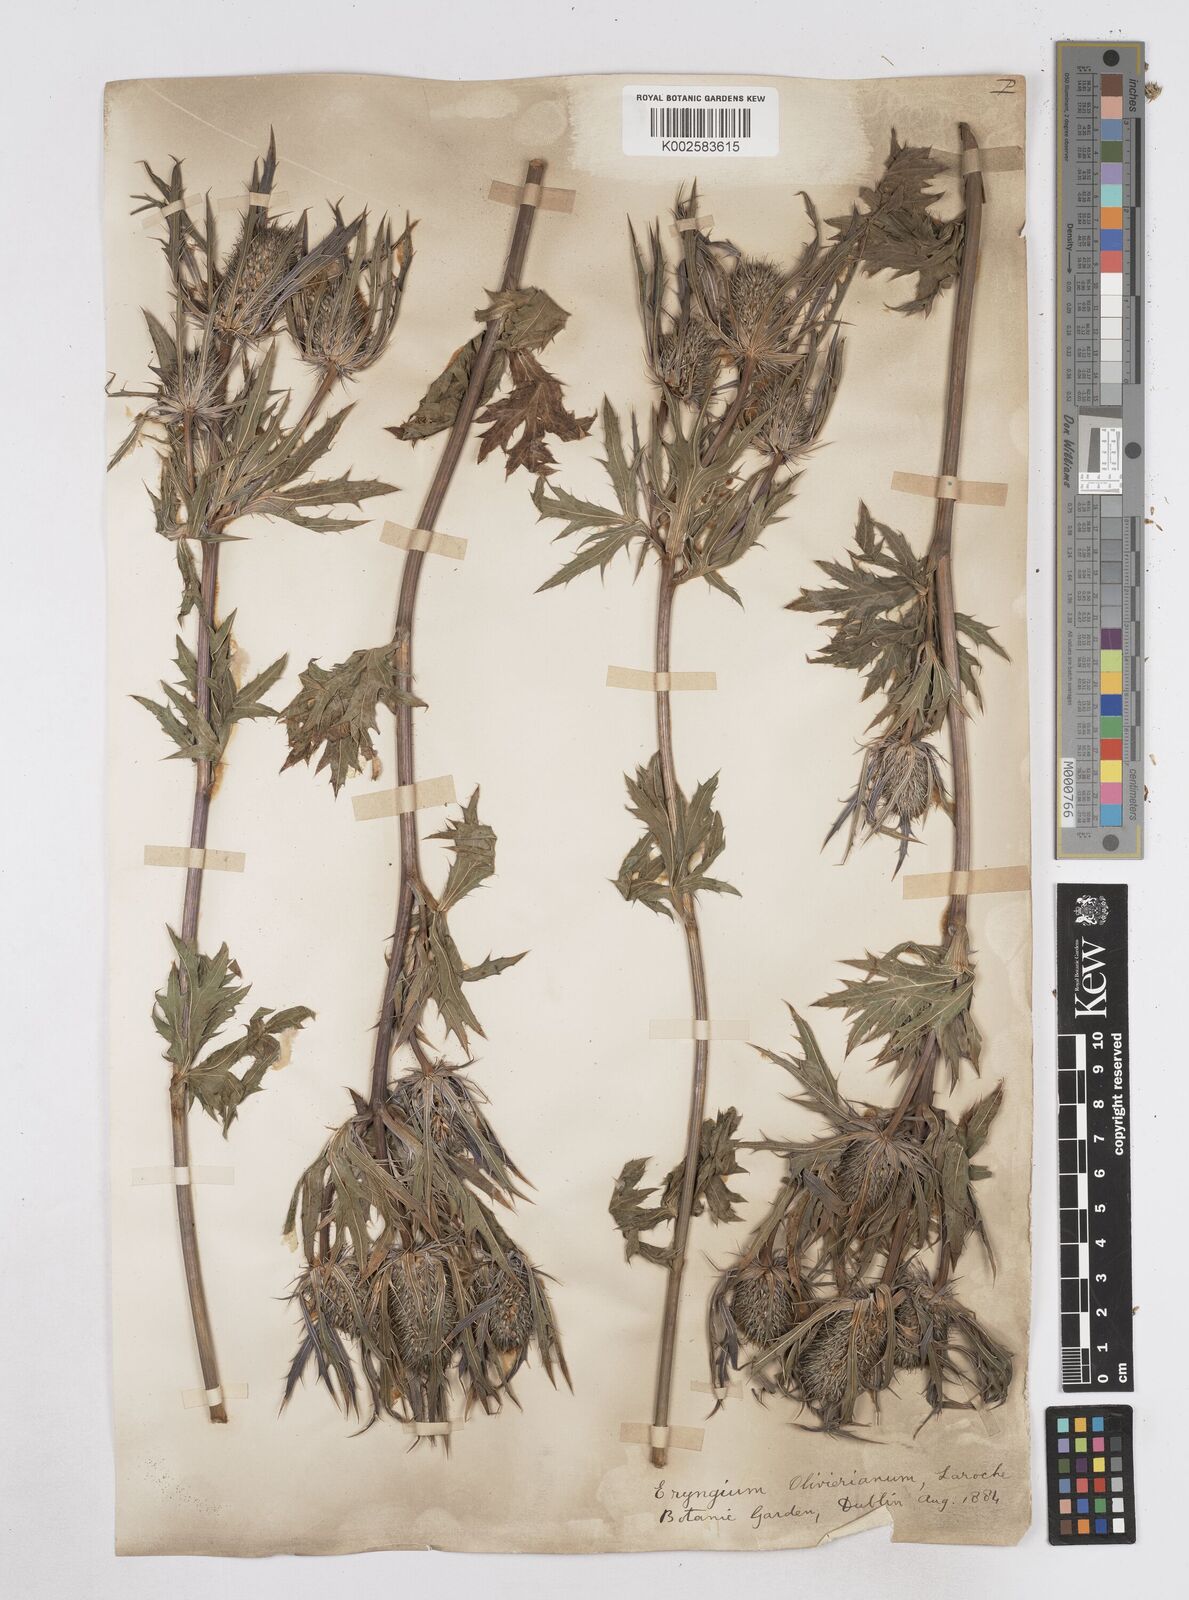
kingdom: Plantae
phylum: Tracheophyta
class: Magnoliopsida
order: Apiales
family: Apiaceae
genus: Eryngium
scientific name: Eryngium oliverianum
